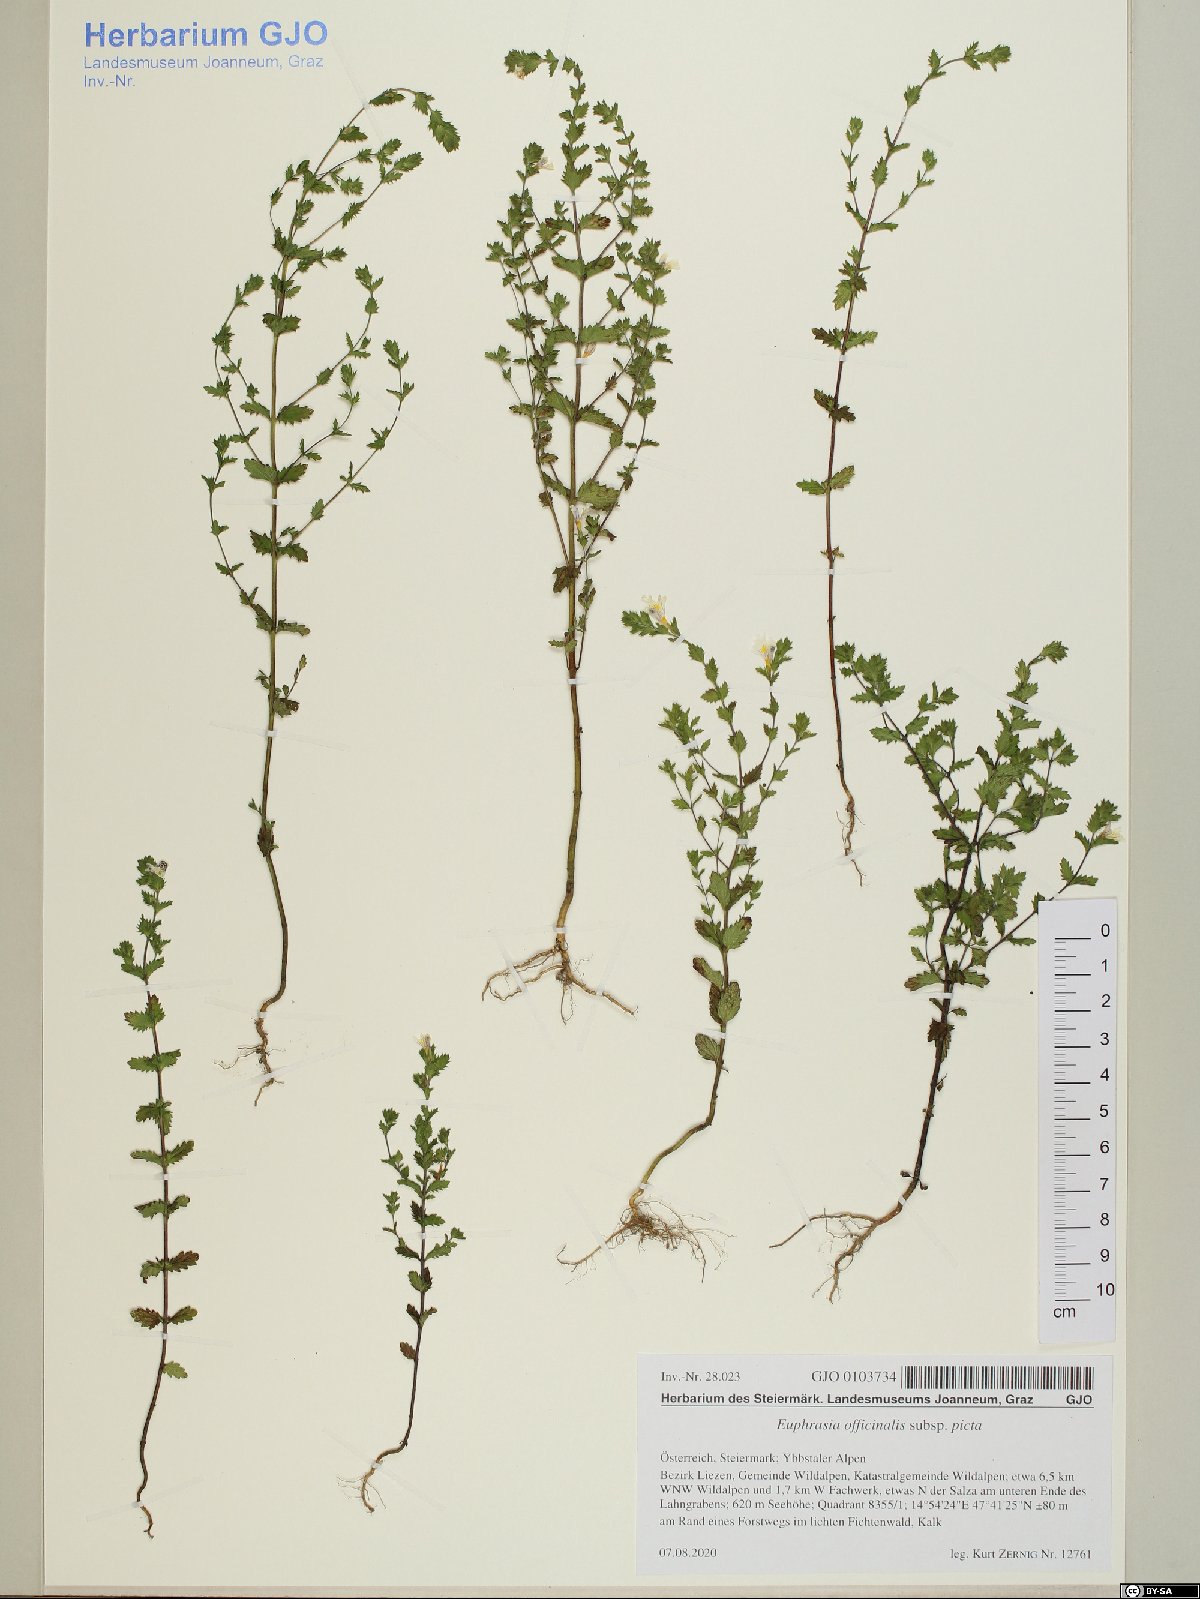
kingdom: Plantae
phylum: Tracheophyta
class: Magnoliopsida
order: Lamiales
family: Orobanchaceae
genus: Euphrasia
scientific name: Euphrasia officinalis
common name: Eyebright
